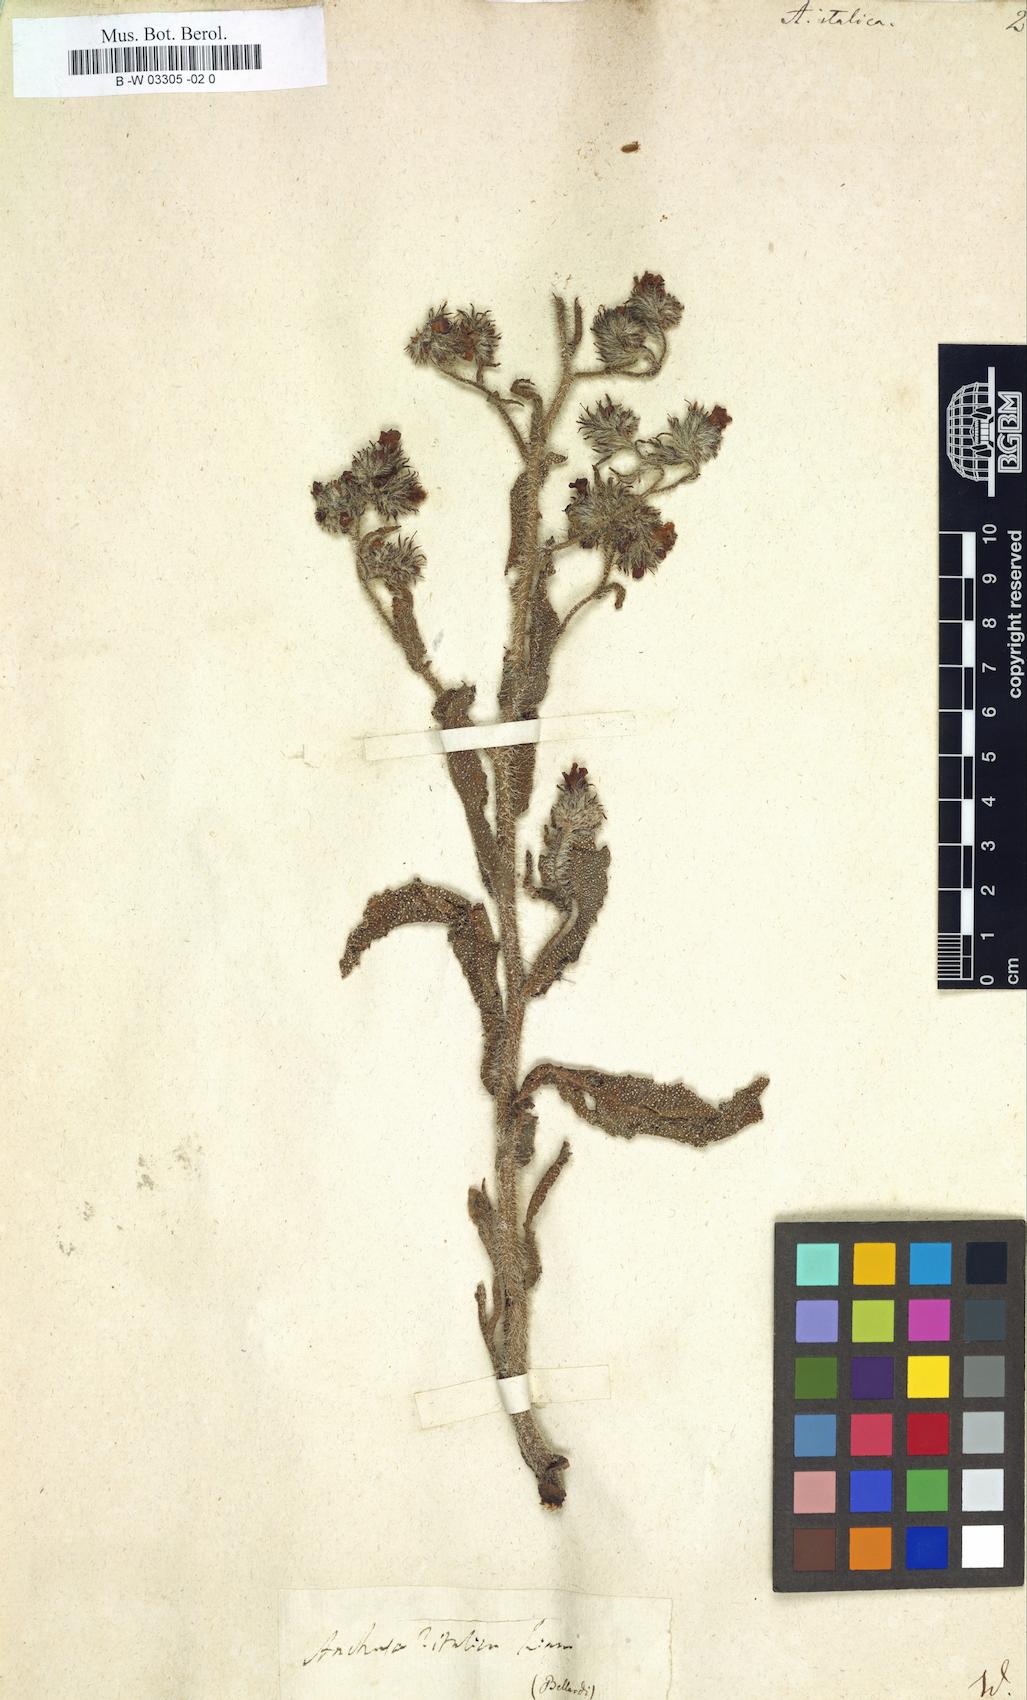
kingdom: Plantae
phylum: Tracheophyta
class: Magnoliopsida
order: Boraginales
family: Boraginaceae
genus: Anchusa
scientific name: Anchusa azurea
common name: Garden anchusa
